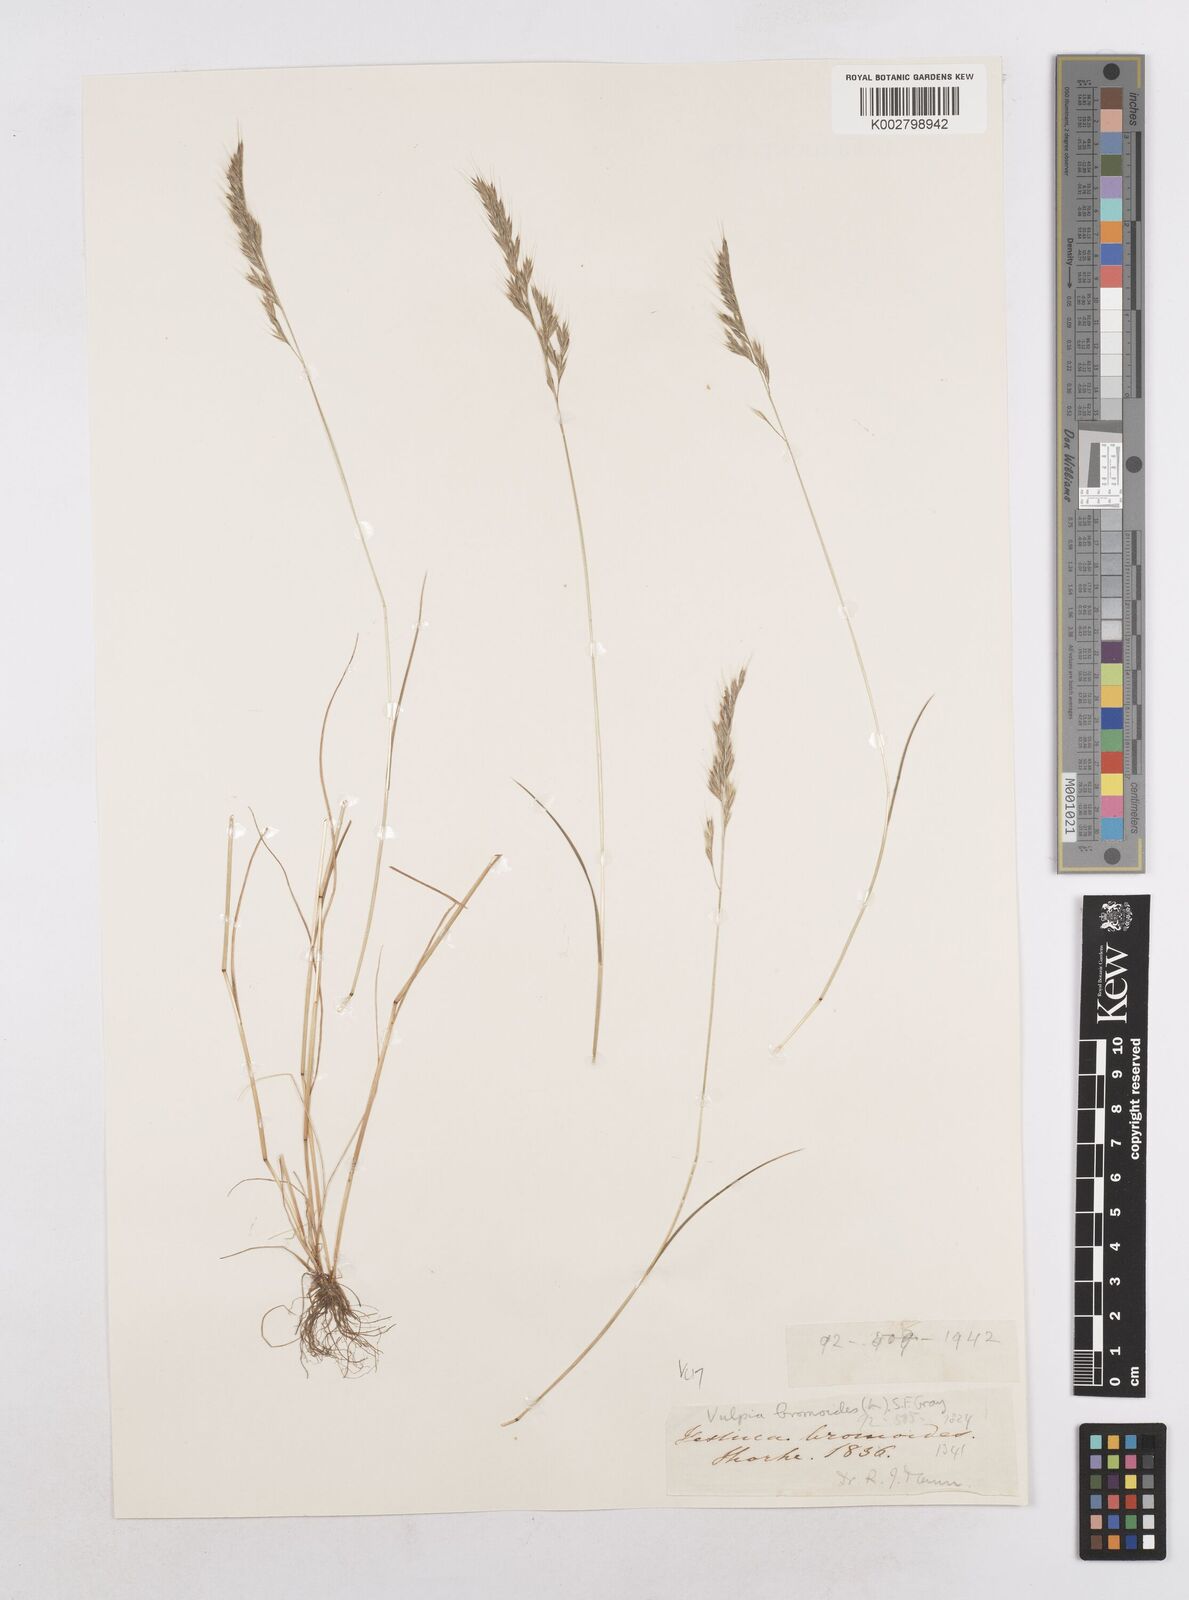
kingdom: Plantae
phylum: Tracheophyta
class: Liliopsida
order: Poales
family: Poaceae
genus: Festuca
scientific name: Festuca bromoides
